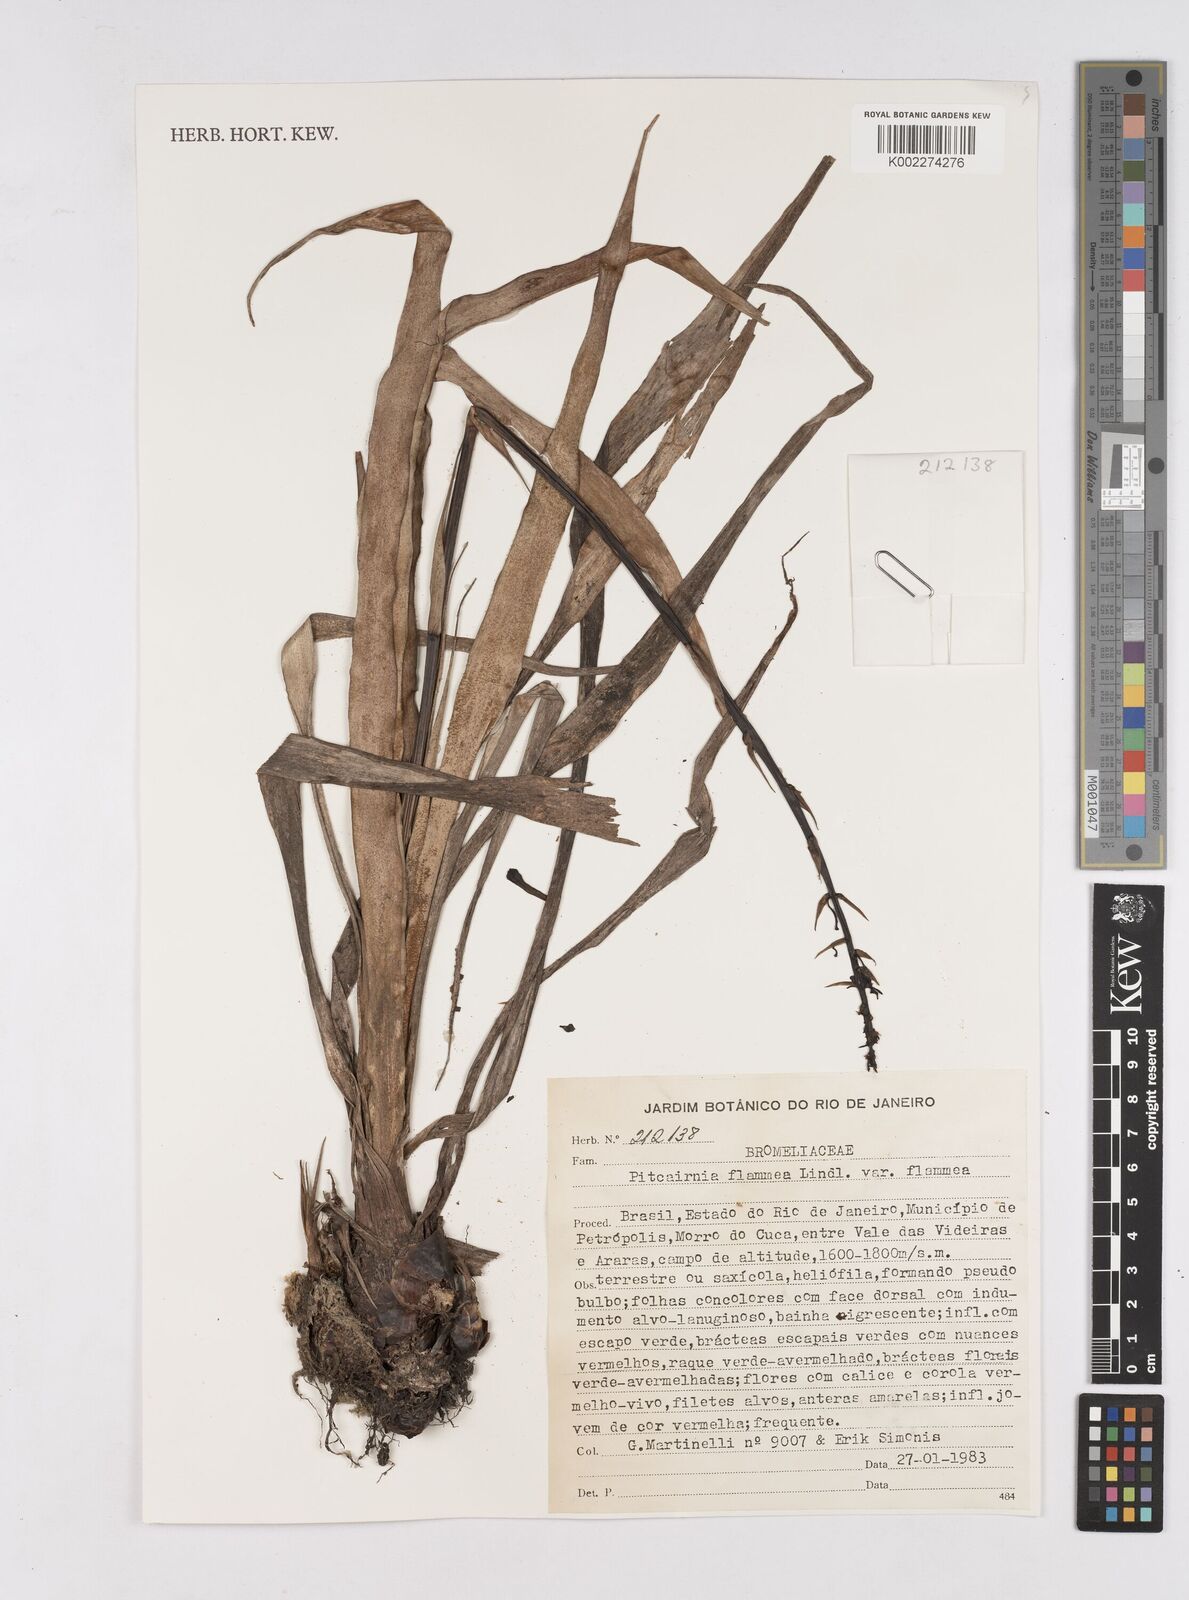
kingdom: Plantae
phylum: Tracheophyta
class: Liliopsida
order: Poales
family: Bromeliaceae
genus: Pitcairnia
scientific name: Pitcairnia flammea
